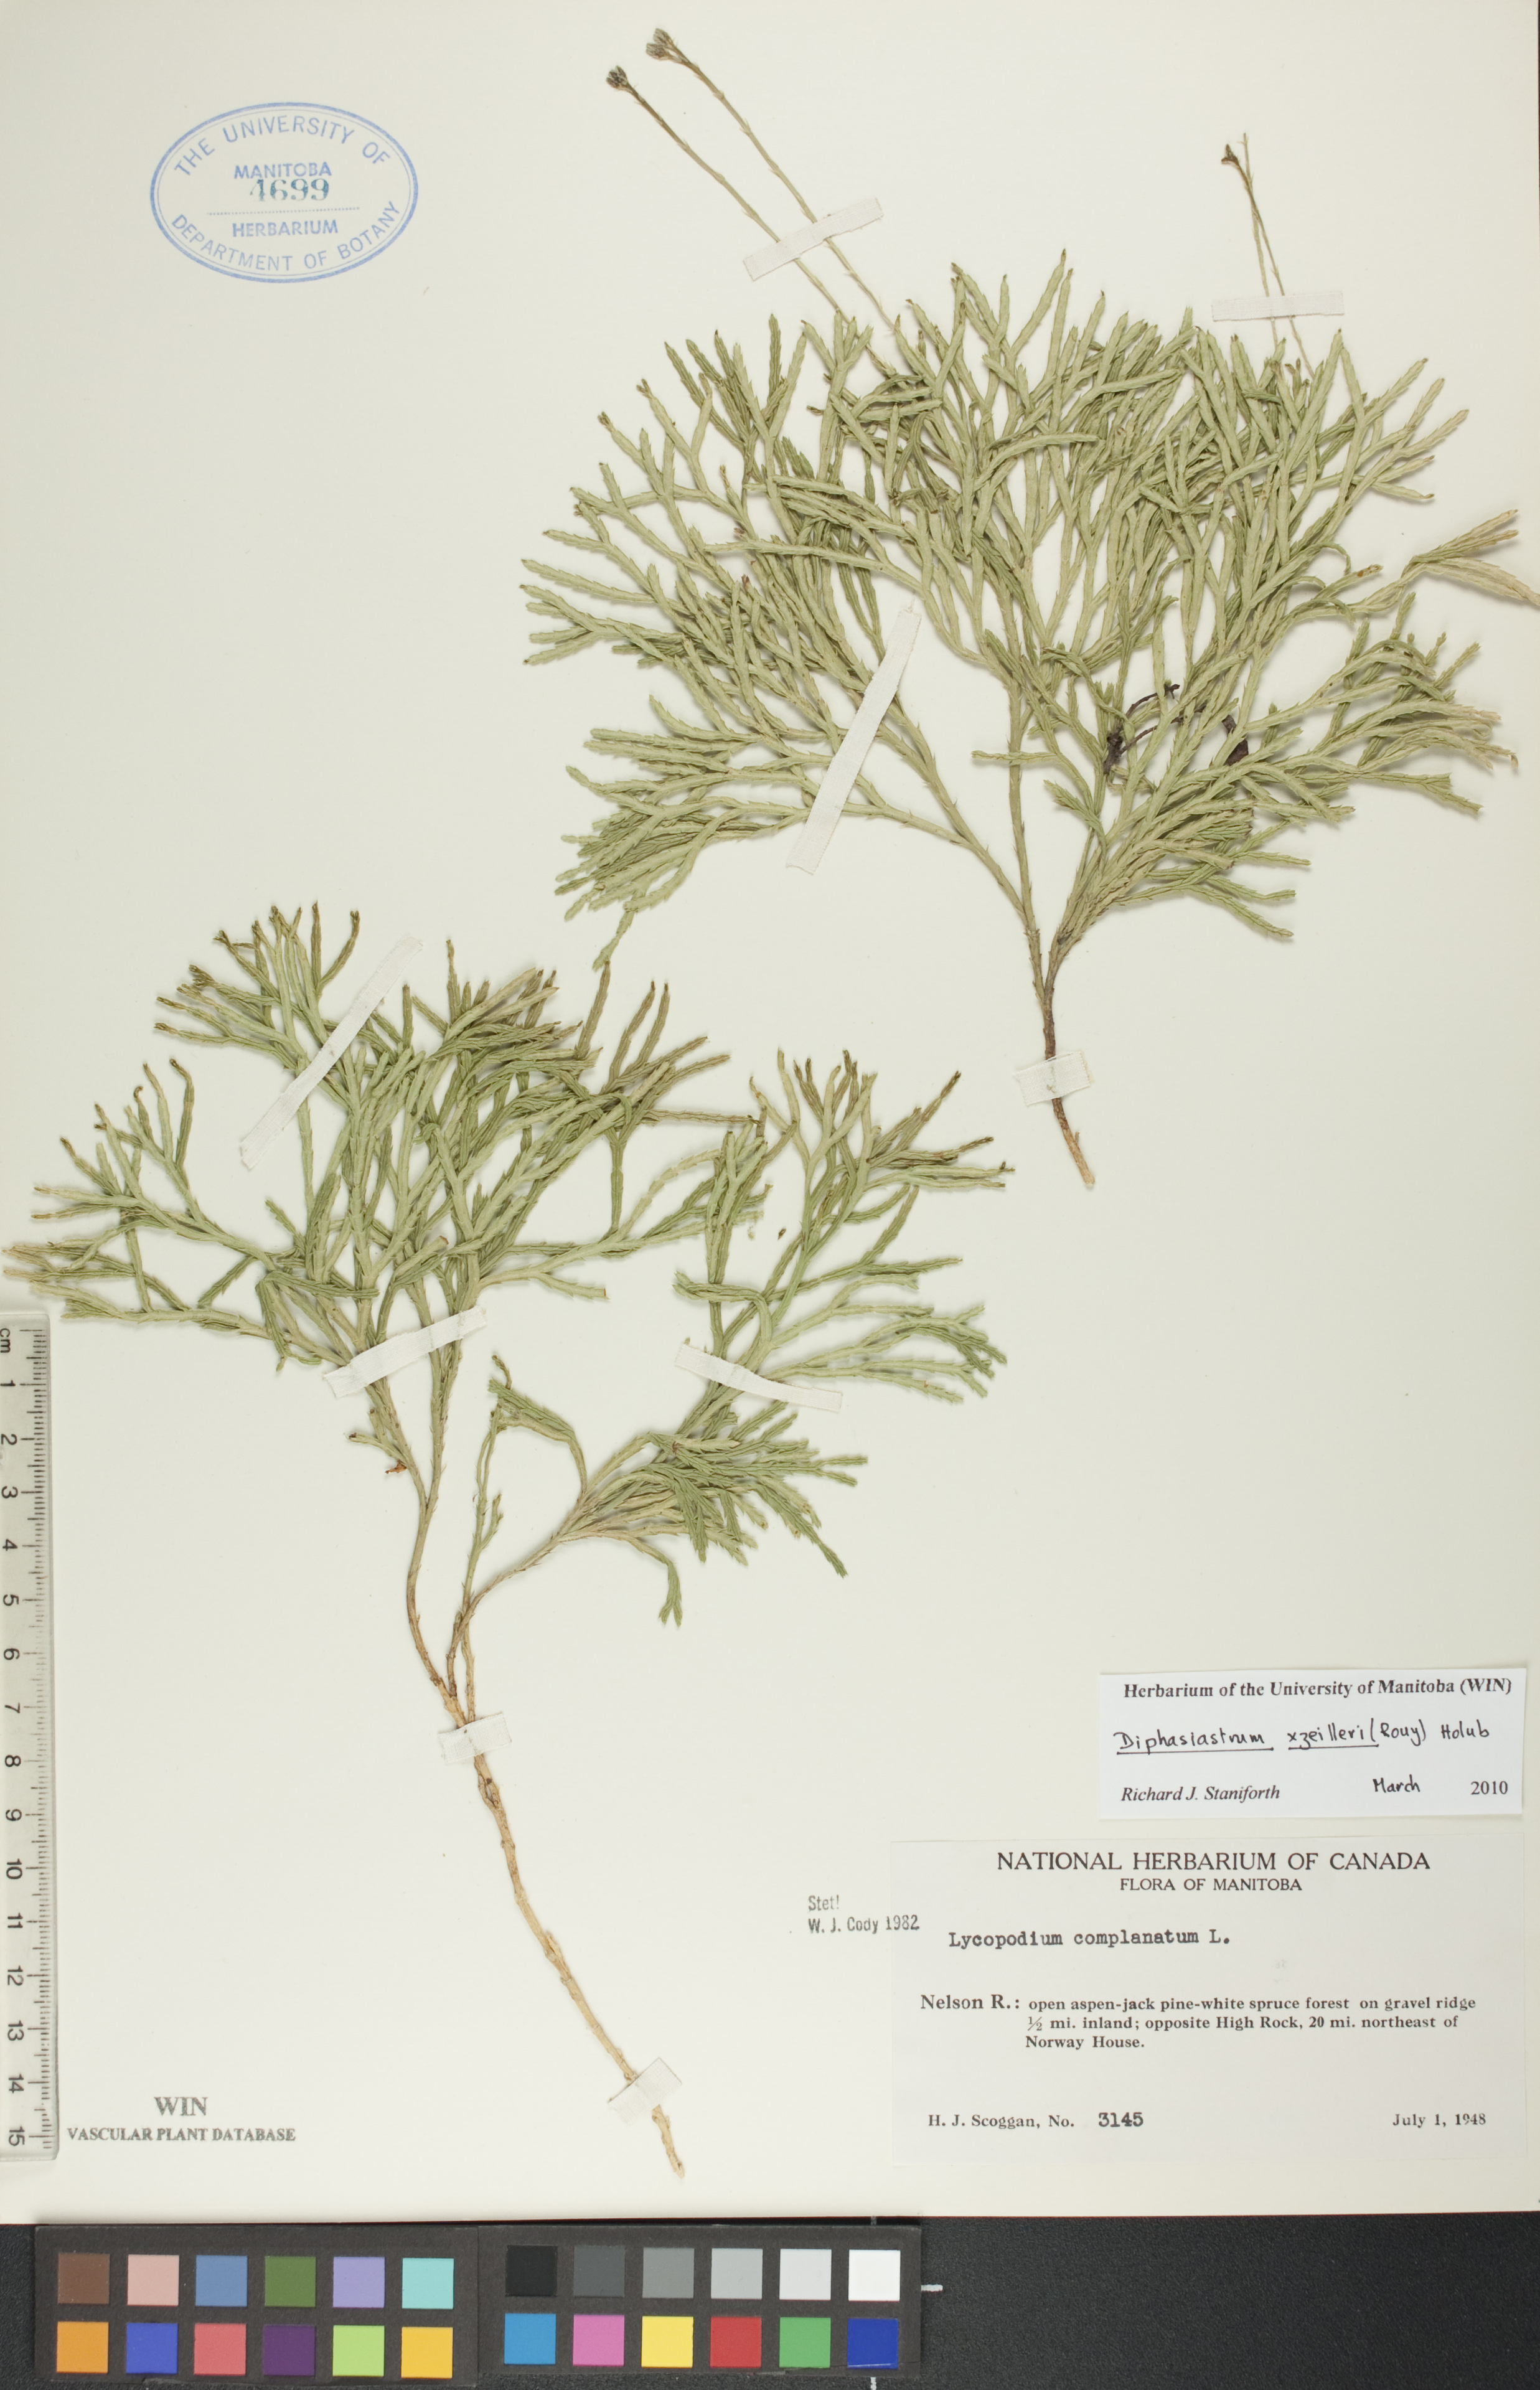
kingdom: Plantae
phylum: Tracheophyta
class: Lycopodiopsida
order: Lycopodiales
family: Lycopodiaceae
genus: Diphasiastrum
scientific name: Diphasiastrum zeilleri
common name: Zeiller's clubmoss
